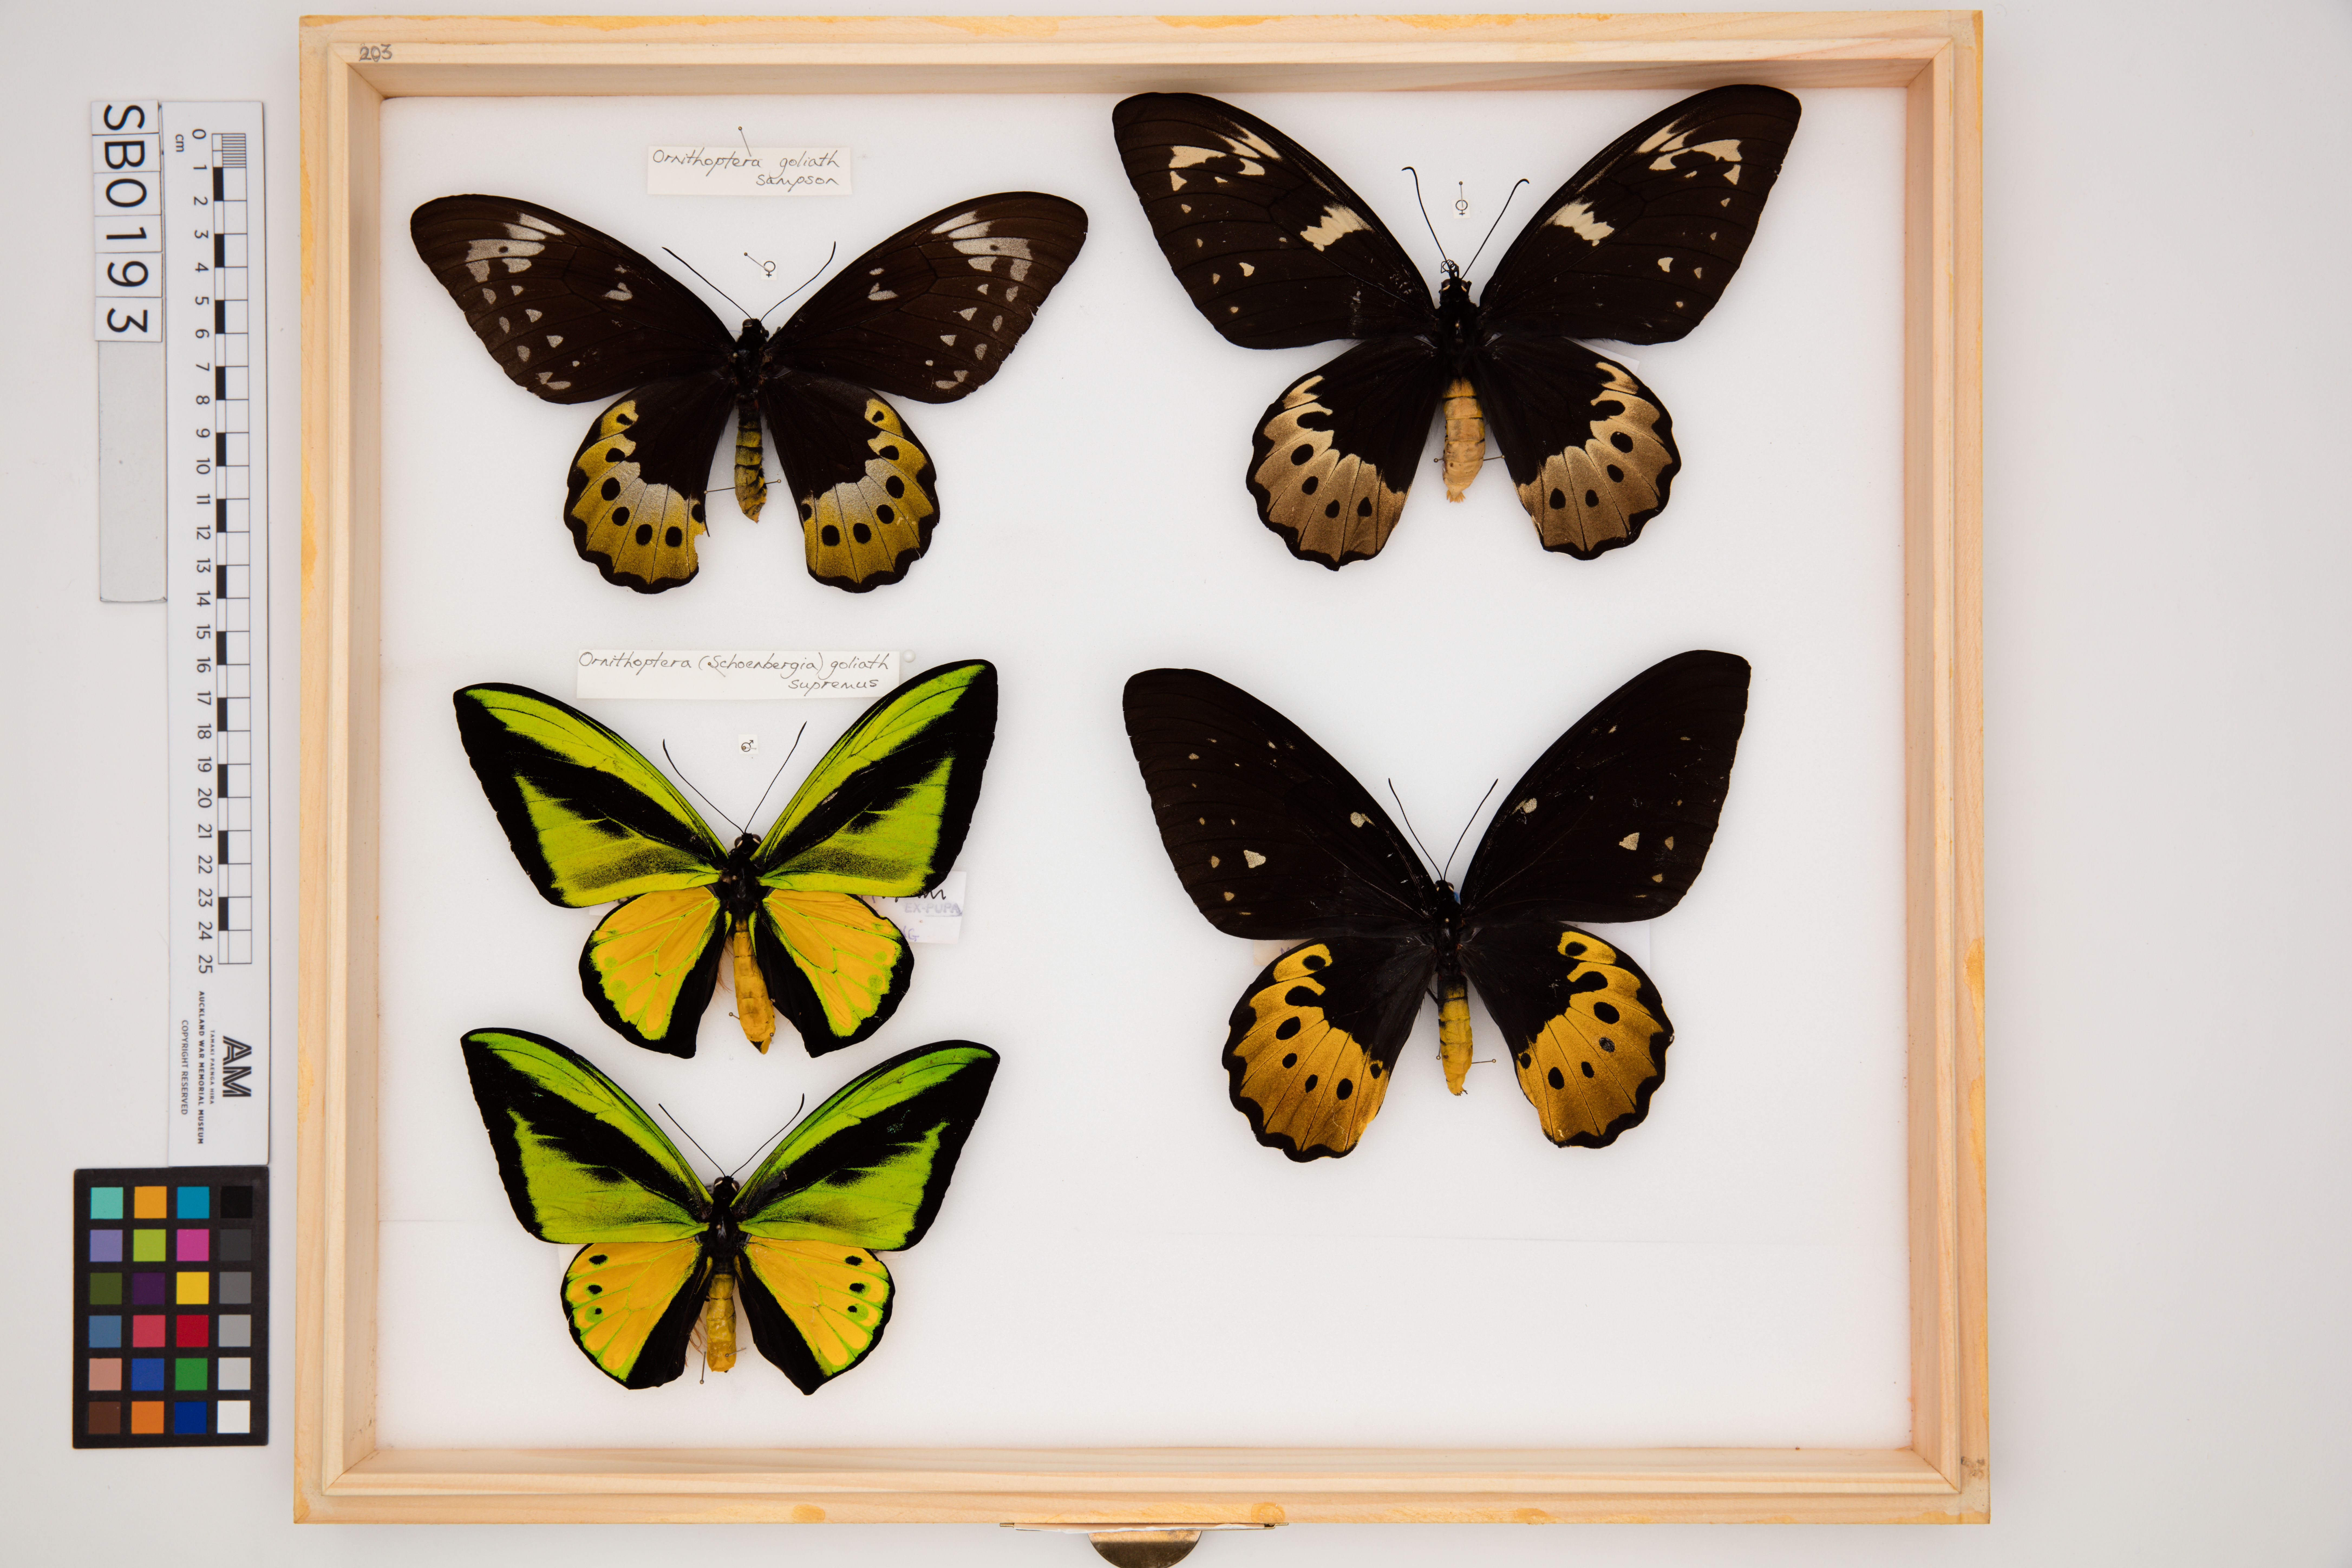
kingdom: Animalia
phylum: Arthropoda
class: Insecta
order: Lepidoptera
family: Papilionidae
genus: Ornithoptera
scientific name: Ornithoptera goliath
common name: Goliath birdwing
